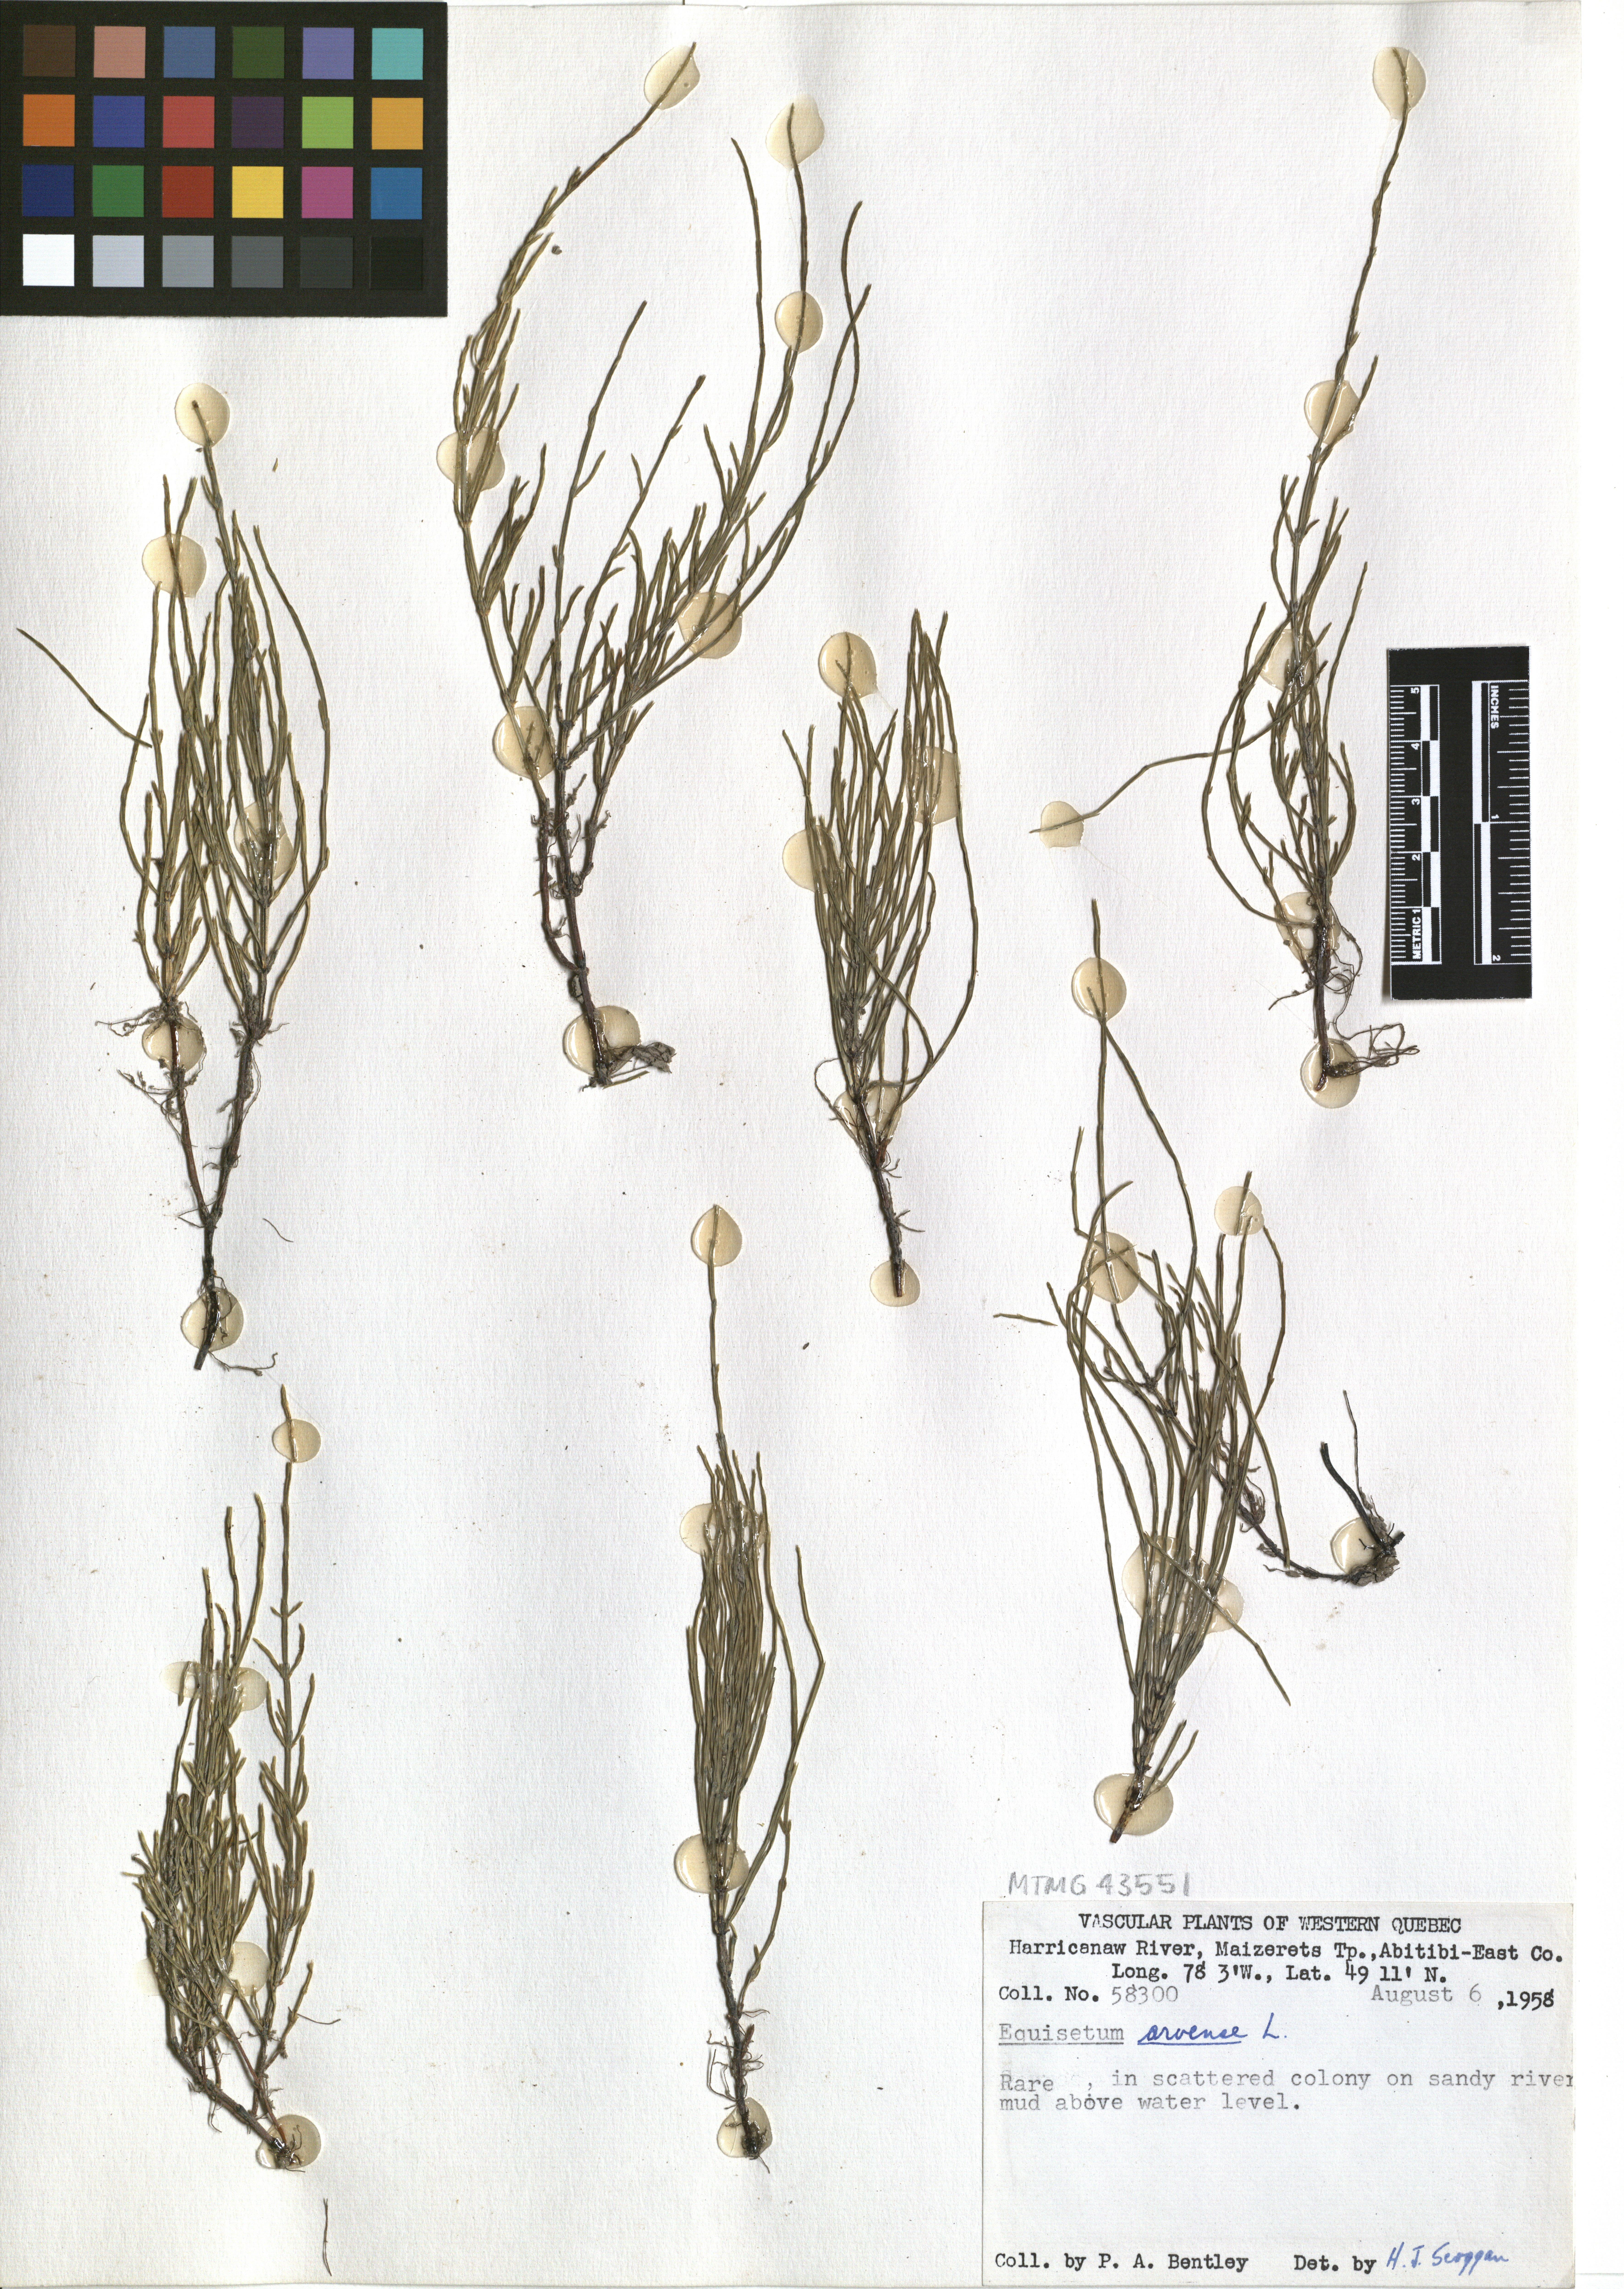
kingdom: Plantae
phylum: Tracheophyta
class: Polypodiopsida
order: Equisetales
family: Equisetaceae
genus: Equisetum
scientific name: Equisetum arvense
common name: Field horsetail
